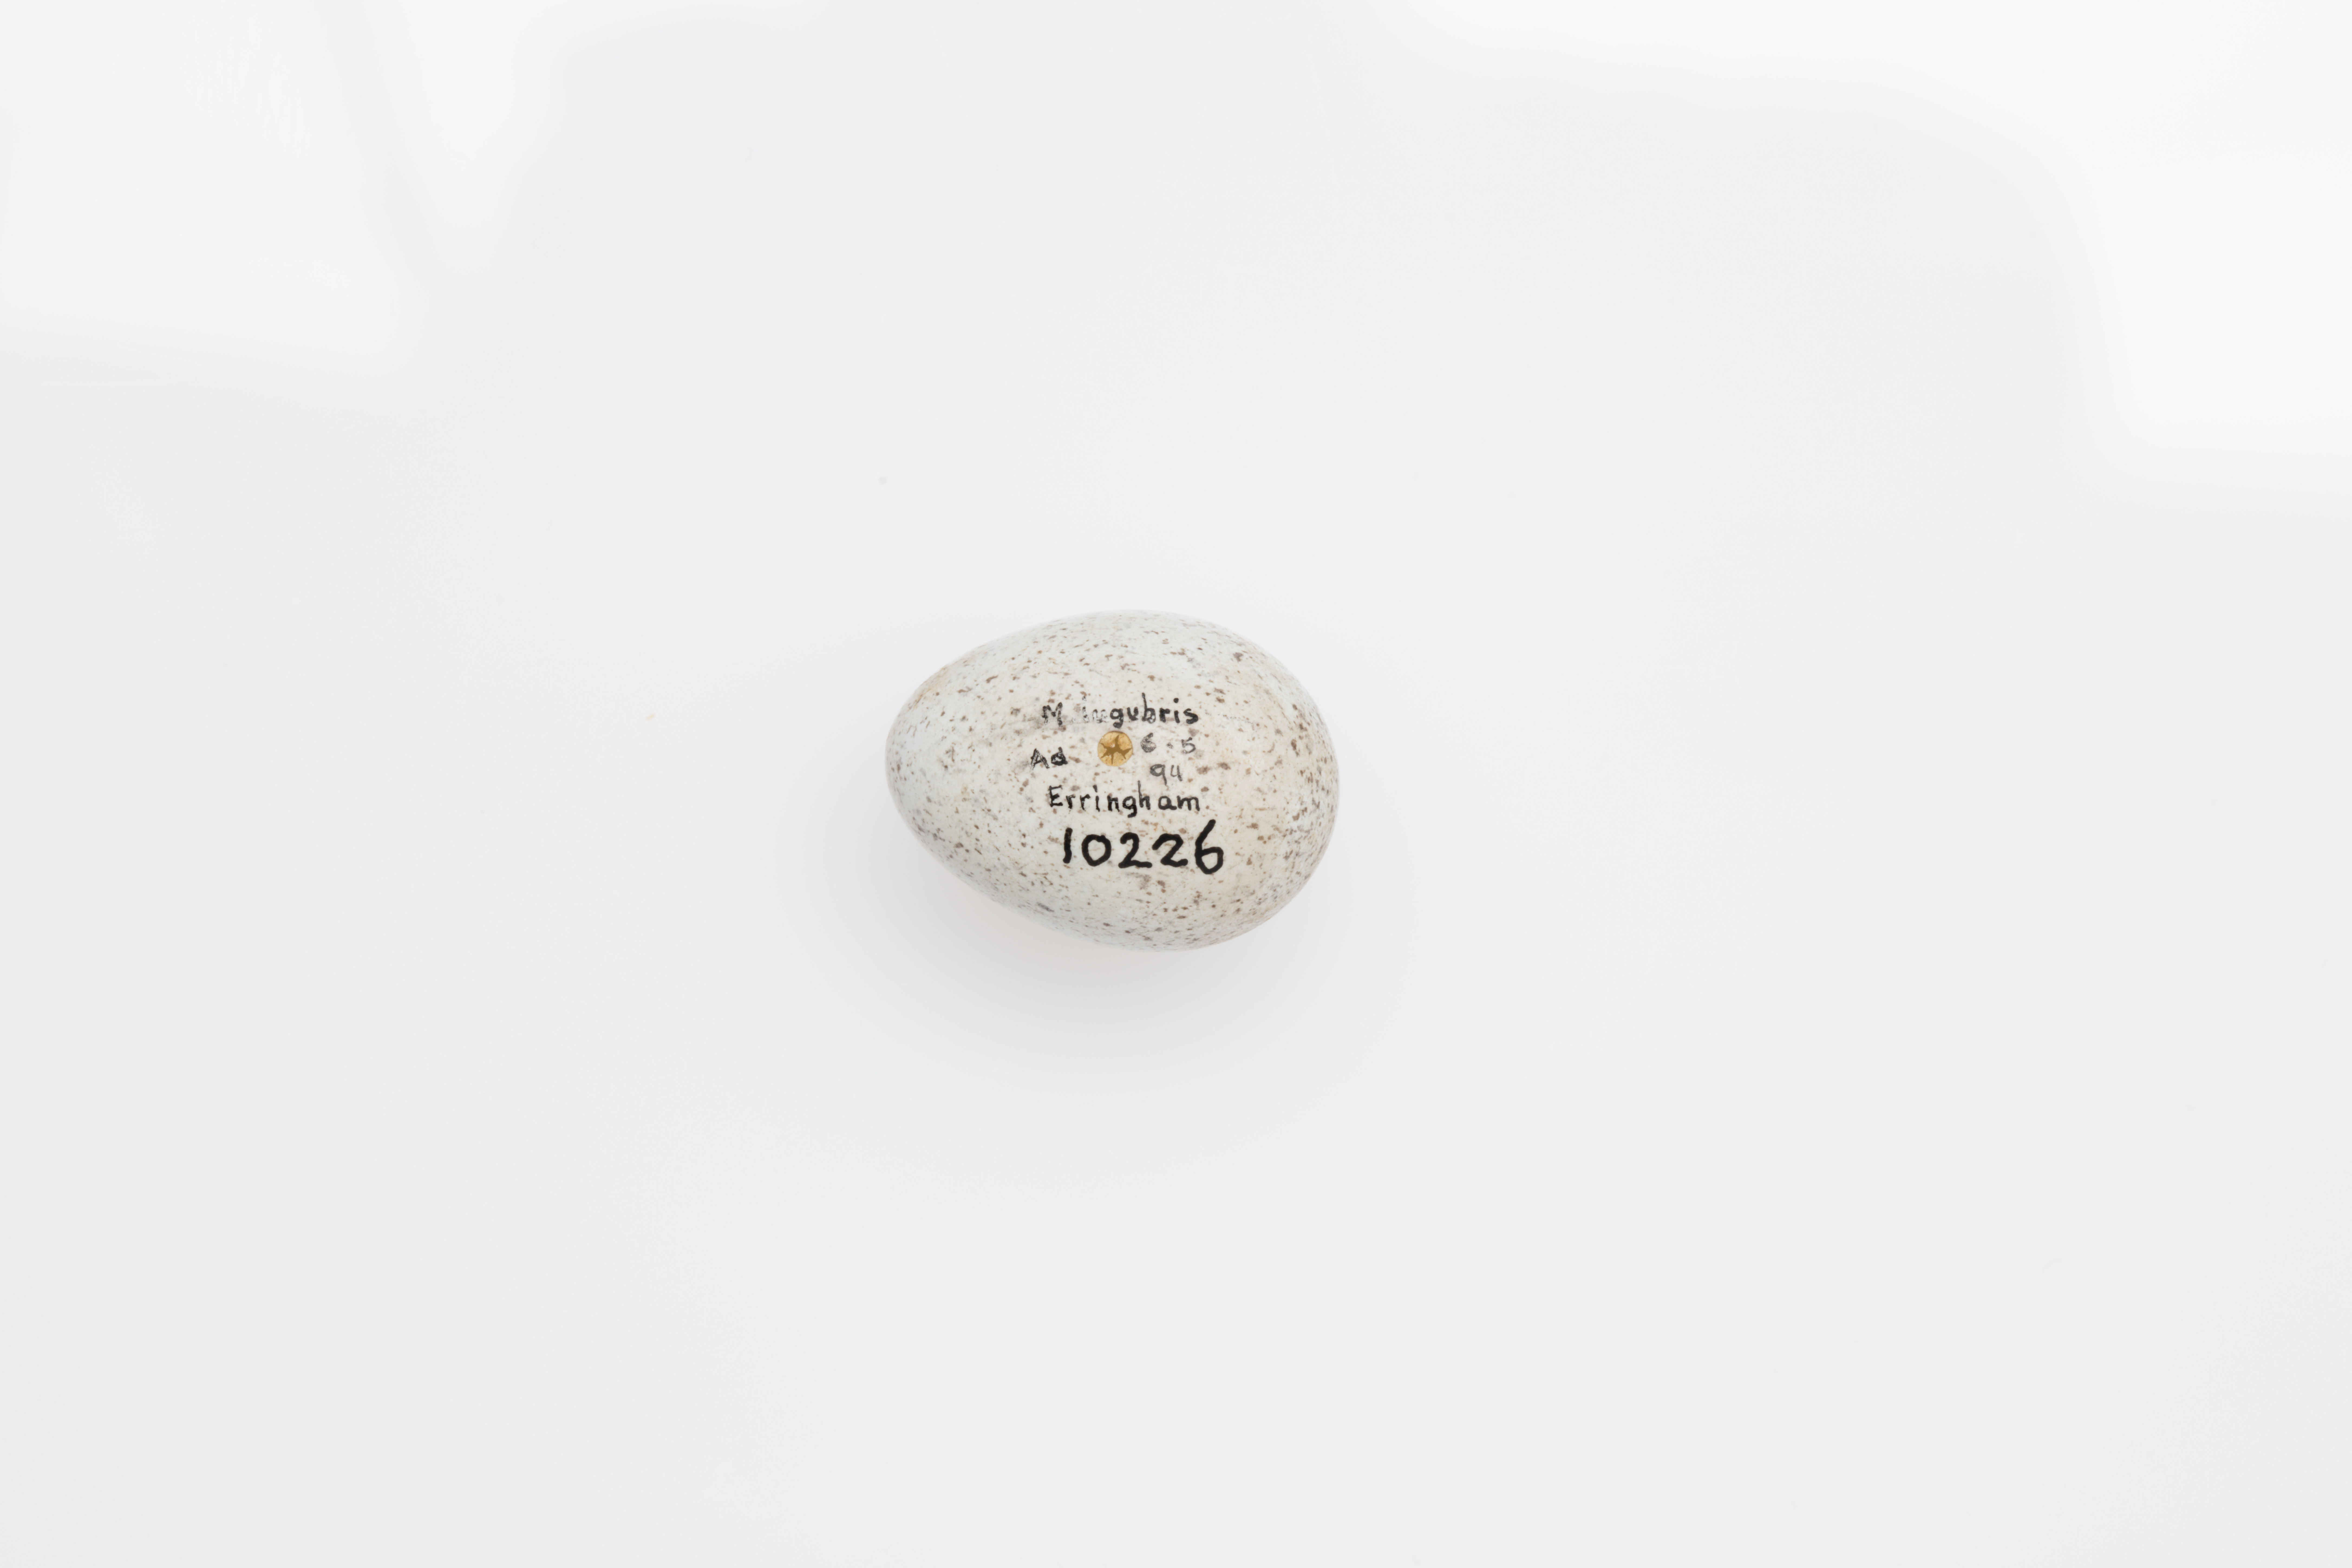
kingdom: Animalia
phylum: Chordata
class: Aves
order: Passeriformes
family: Motacillidae
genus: Motacilla
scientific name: Motacilla alba
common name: White wagtail
